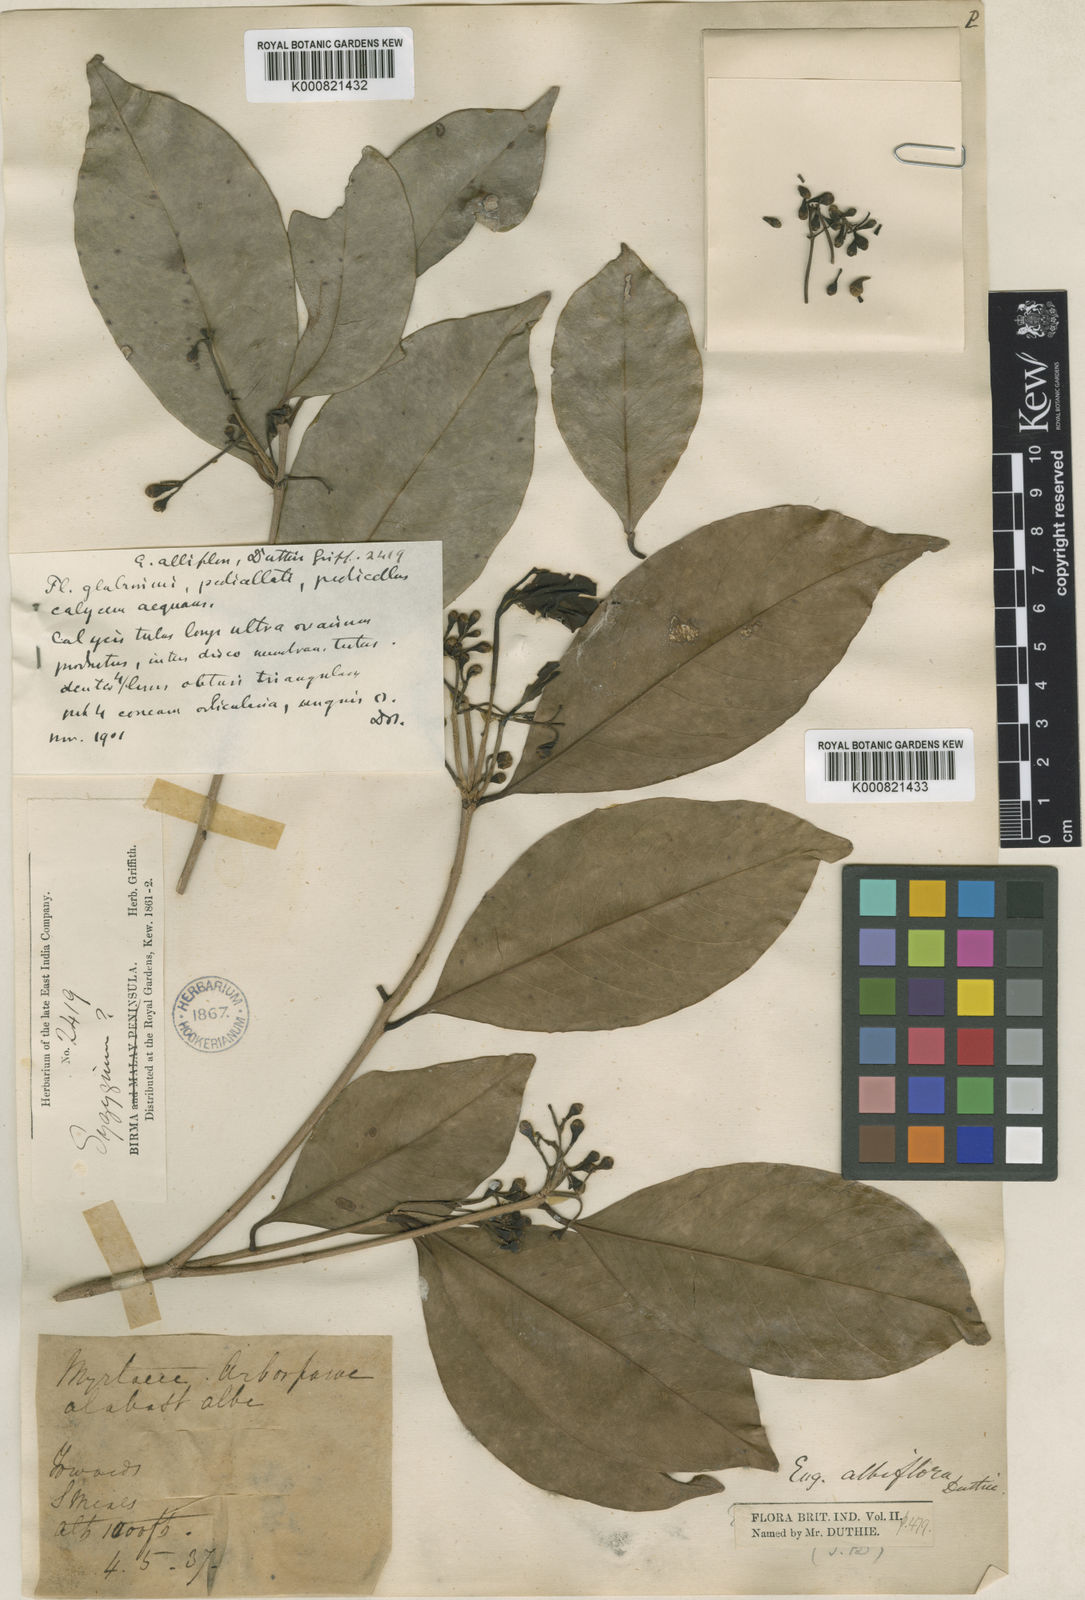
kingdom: Plantae
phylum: Tracheophyta
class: Magnoliopsida
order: Myrtales
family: Myrtaceae
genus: Syzygium
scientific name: Syzygium albiflorum
